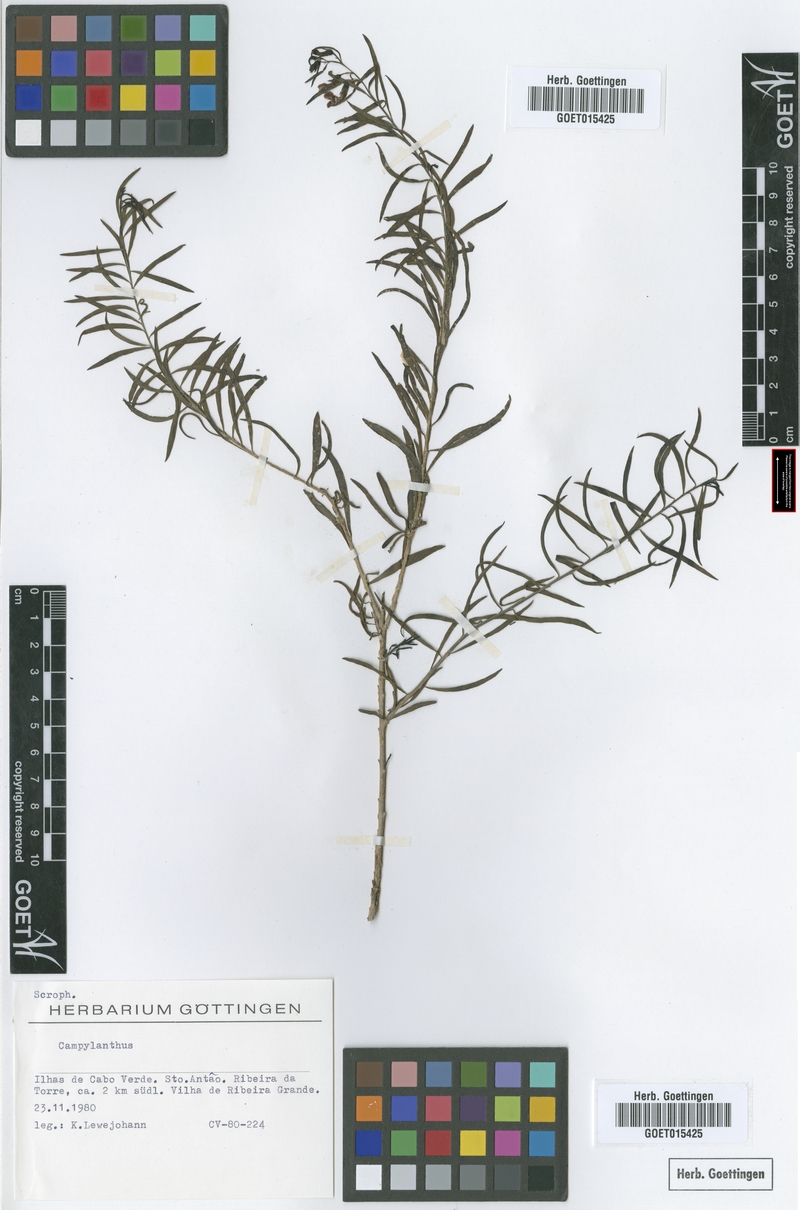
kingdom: Plantae
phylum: Tracheophyta
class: Magnoliopsida
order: Lamiales
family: Plantaginaceae
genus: Campylanthus
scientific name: Campylanthus
